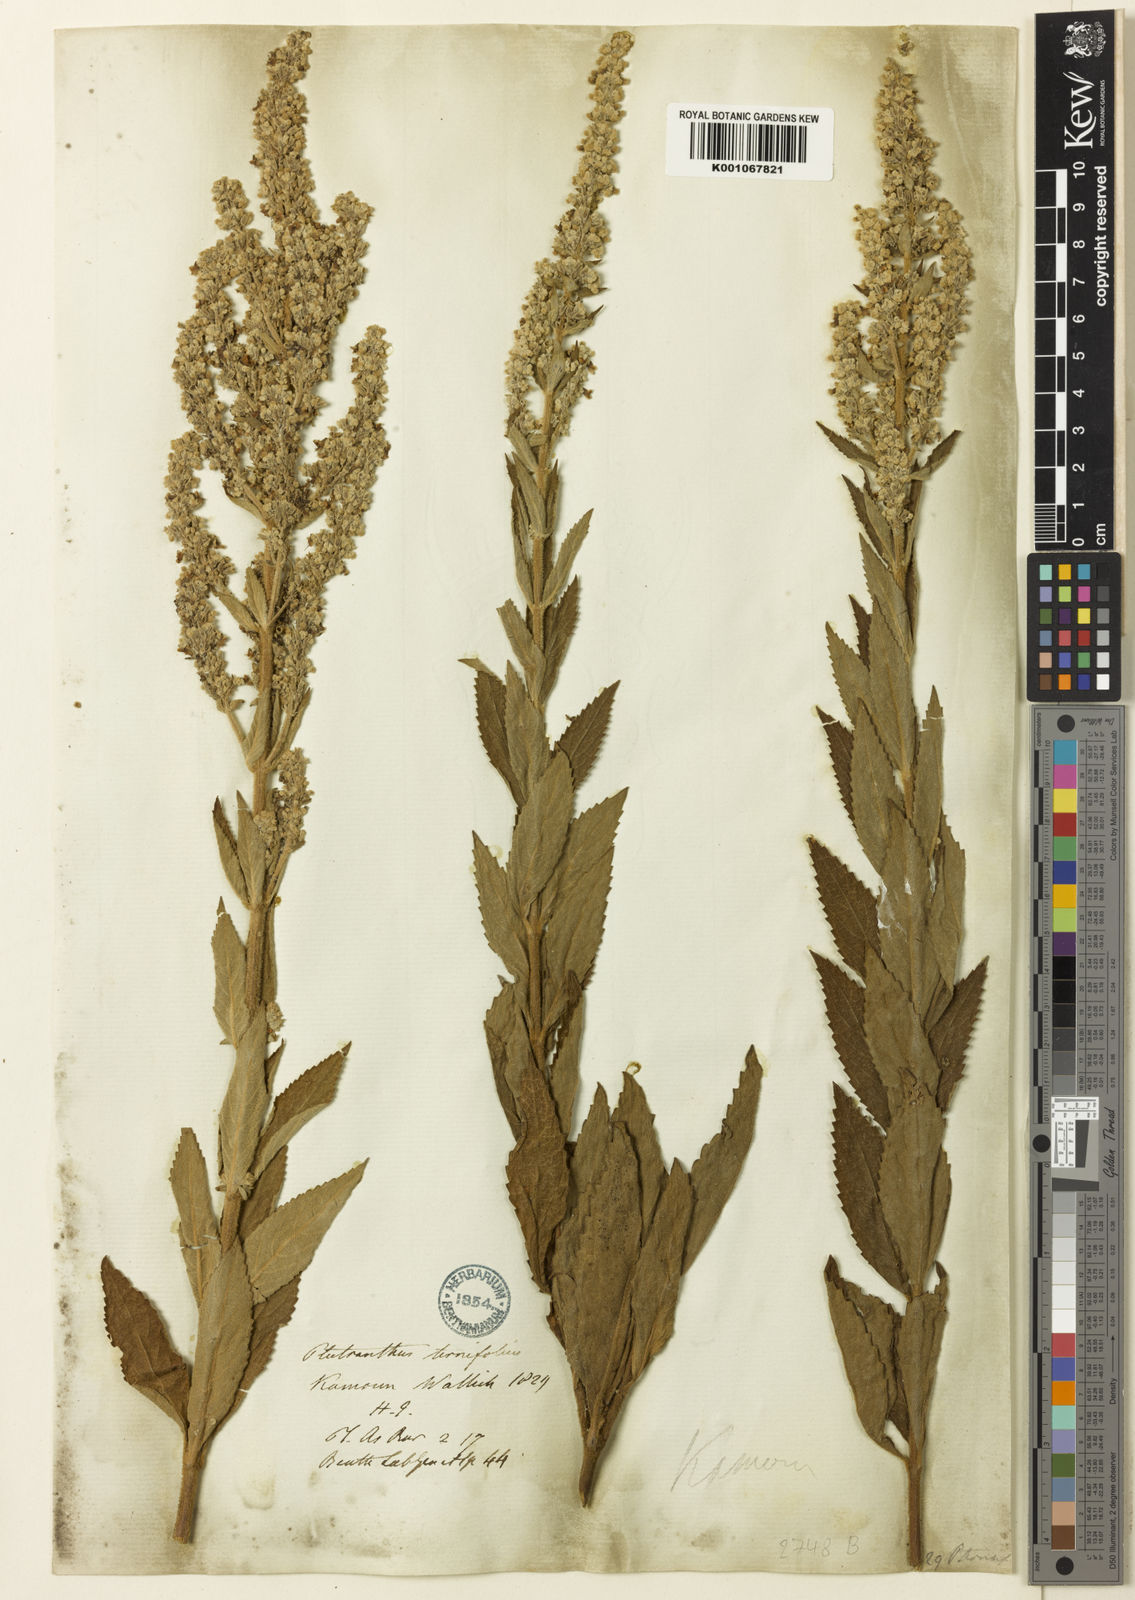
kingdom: Plantae
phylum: Tracheophyta
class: Magnoliopsida
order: Lamiales
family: Lamiaceae
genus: Isodon
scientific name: Isodon
